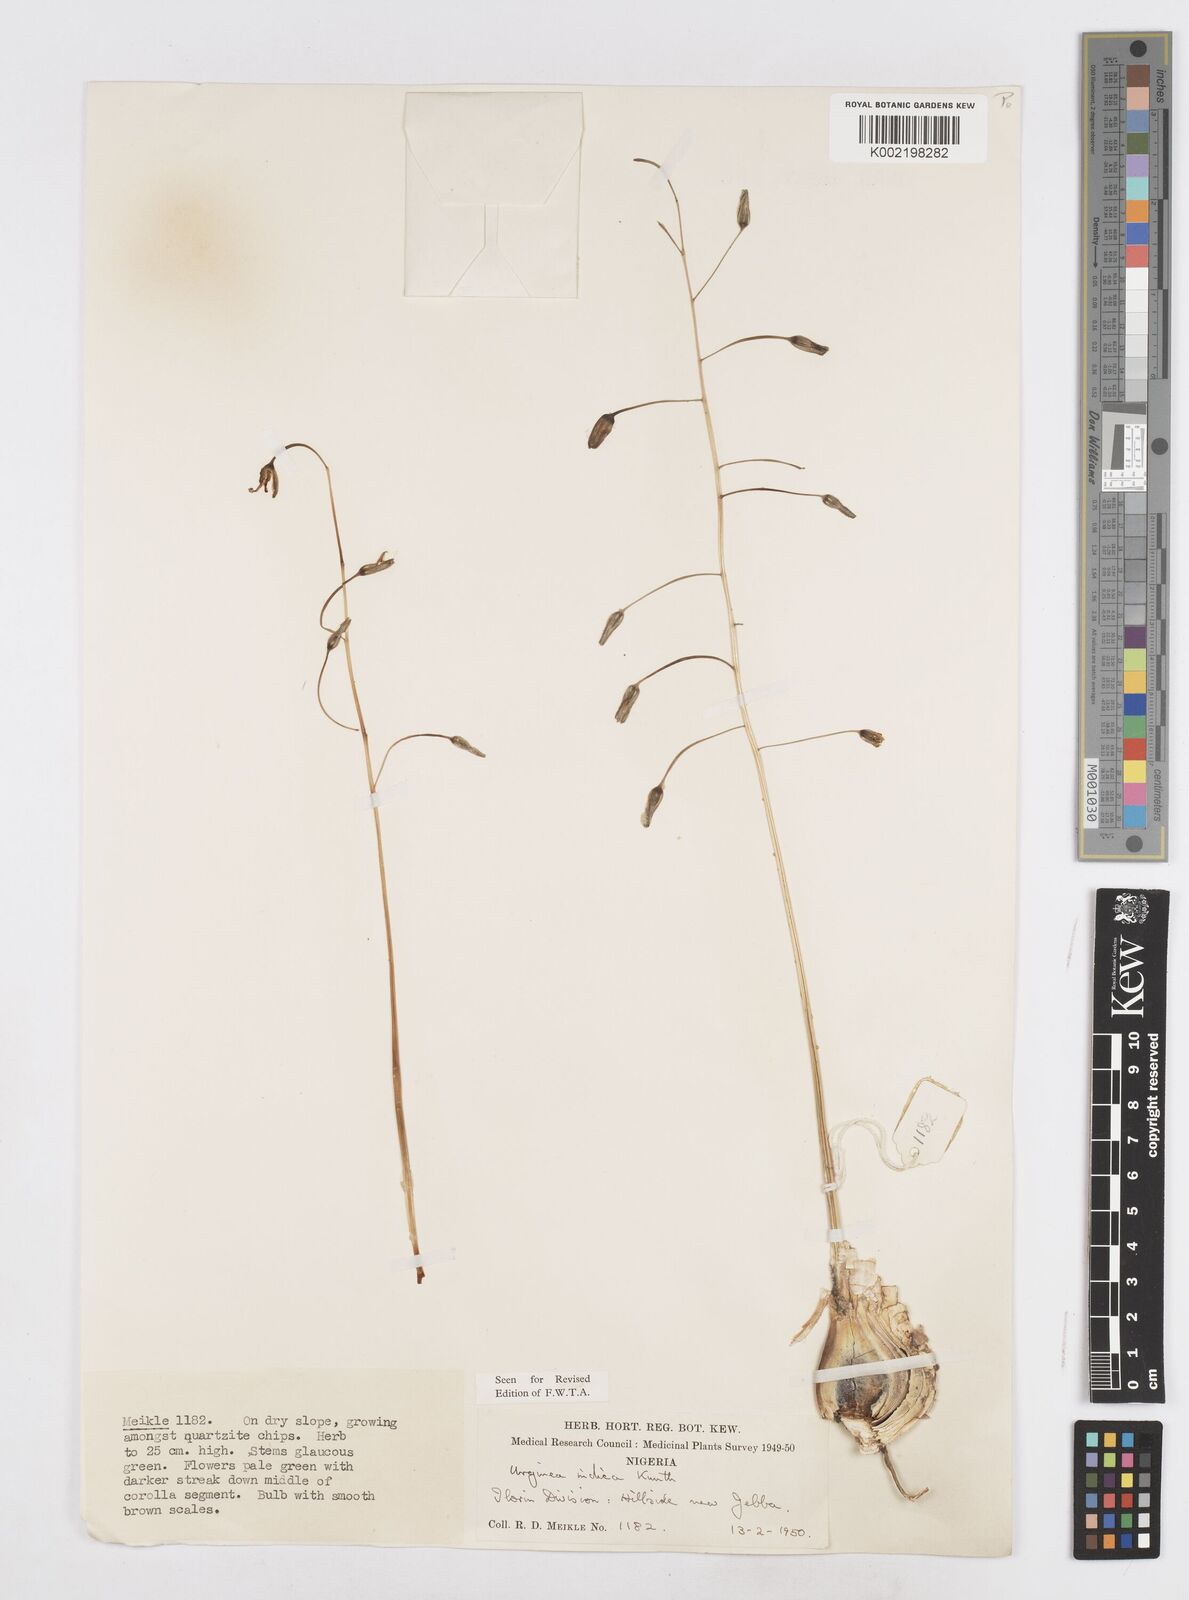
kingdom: Plantae
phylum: Tracheophyta
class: Liliopsida
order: Asparagales
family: Asparagaceae
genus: Drimia
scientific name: Drimia indica
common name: Indian-squill
